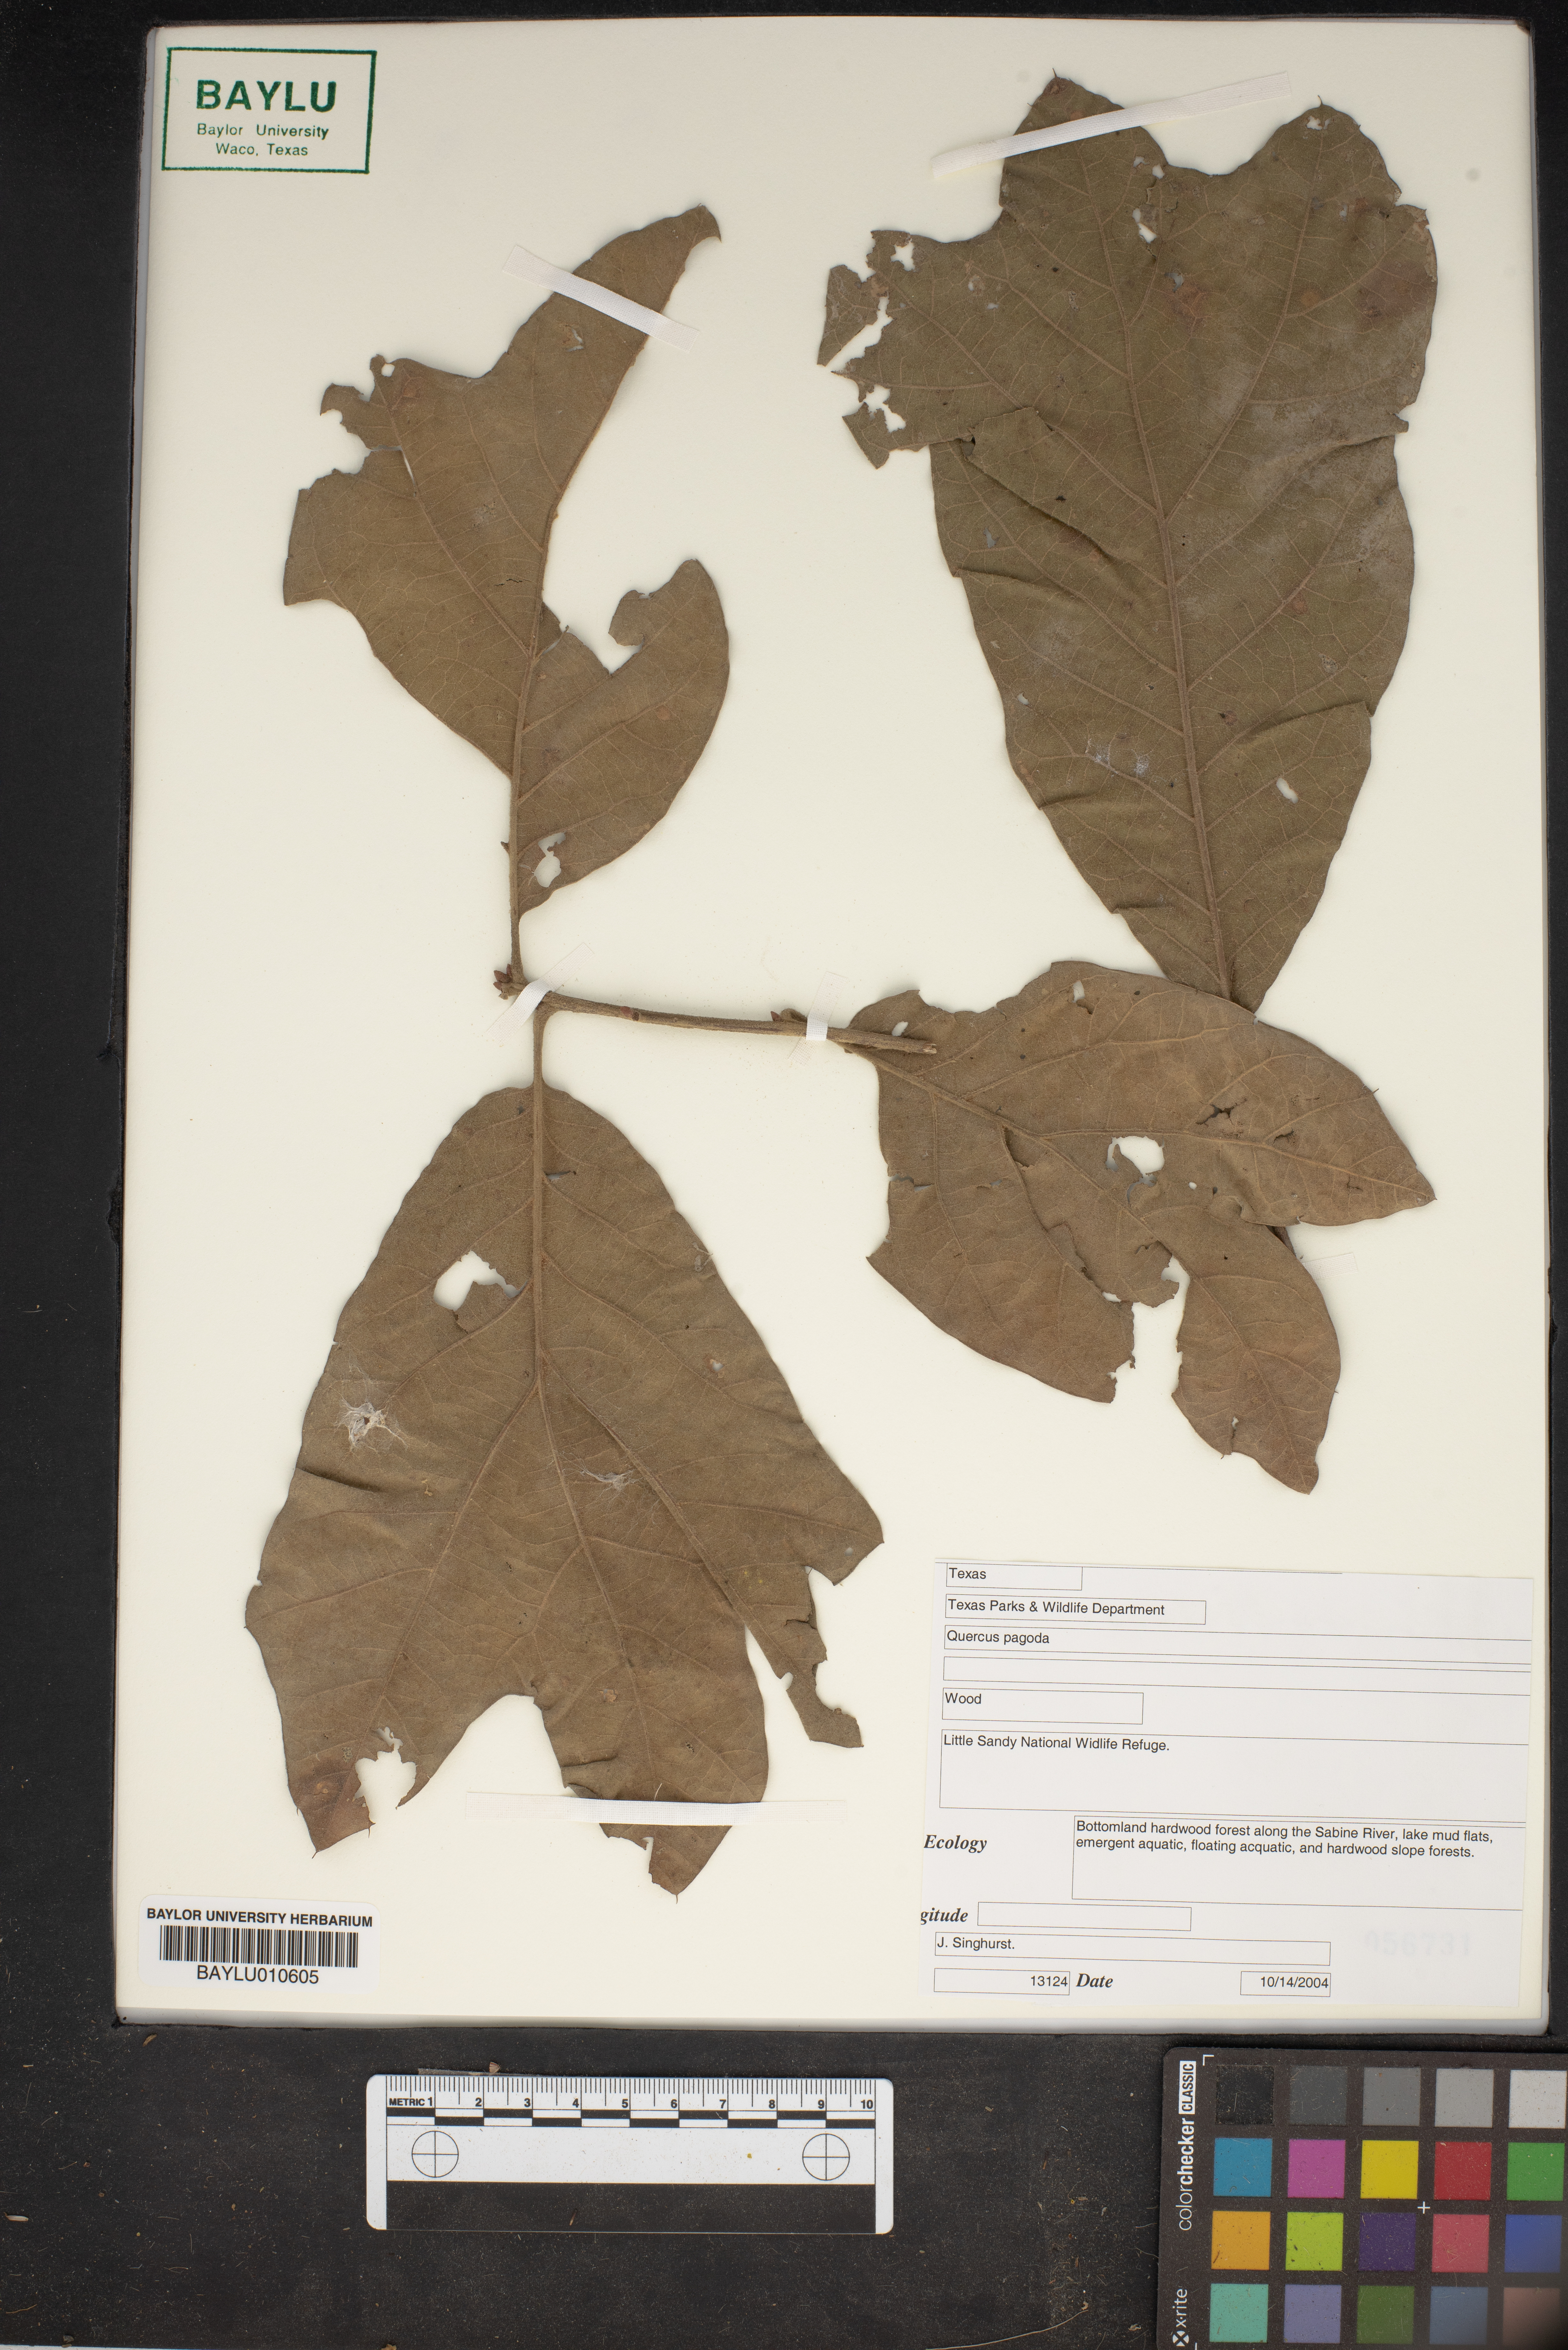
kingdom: Plantae
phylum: Tracheophyta
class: Magnoliopsida
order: Fagales
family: Fagaceae
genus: Quercus
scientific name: Quercus pagoda
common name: Cherrybark oak
